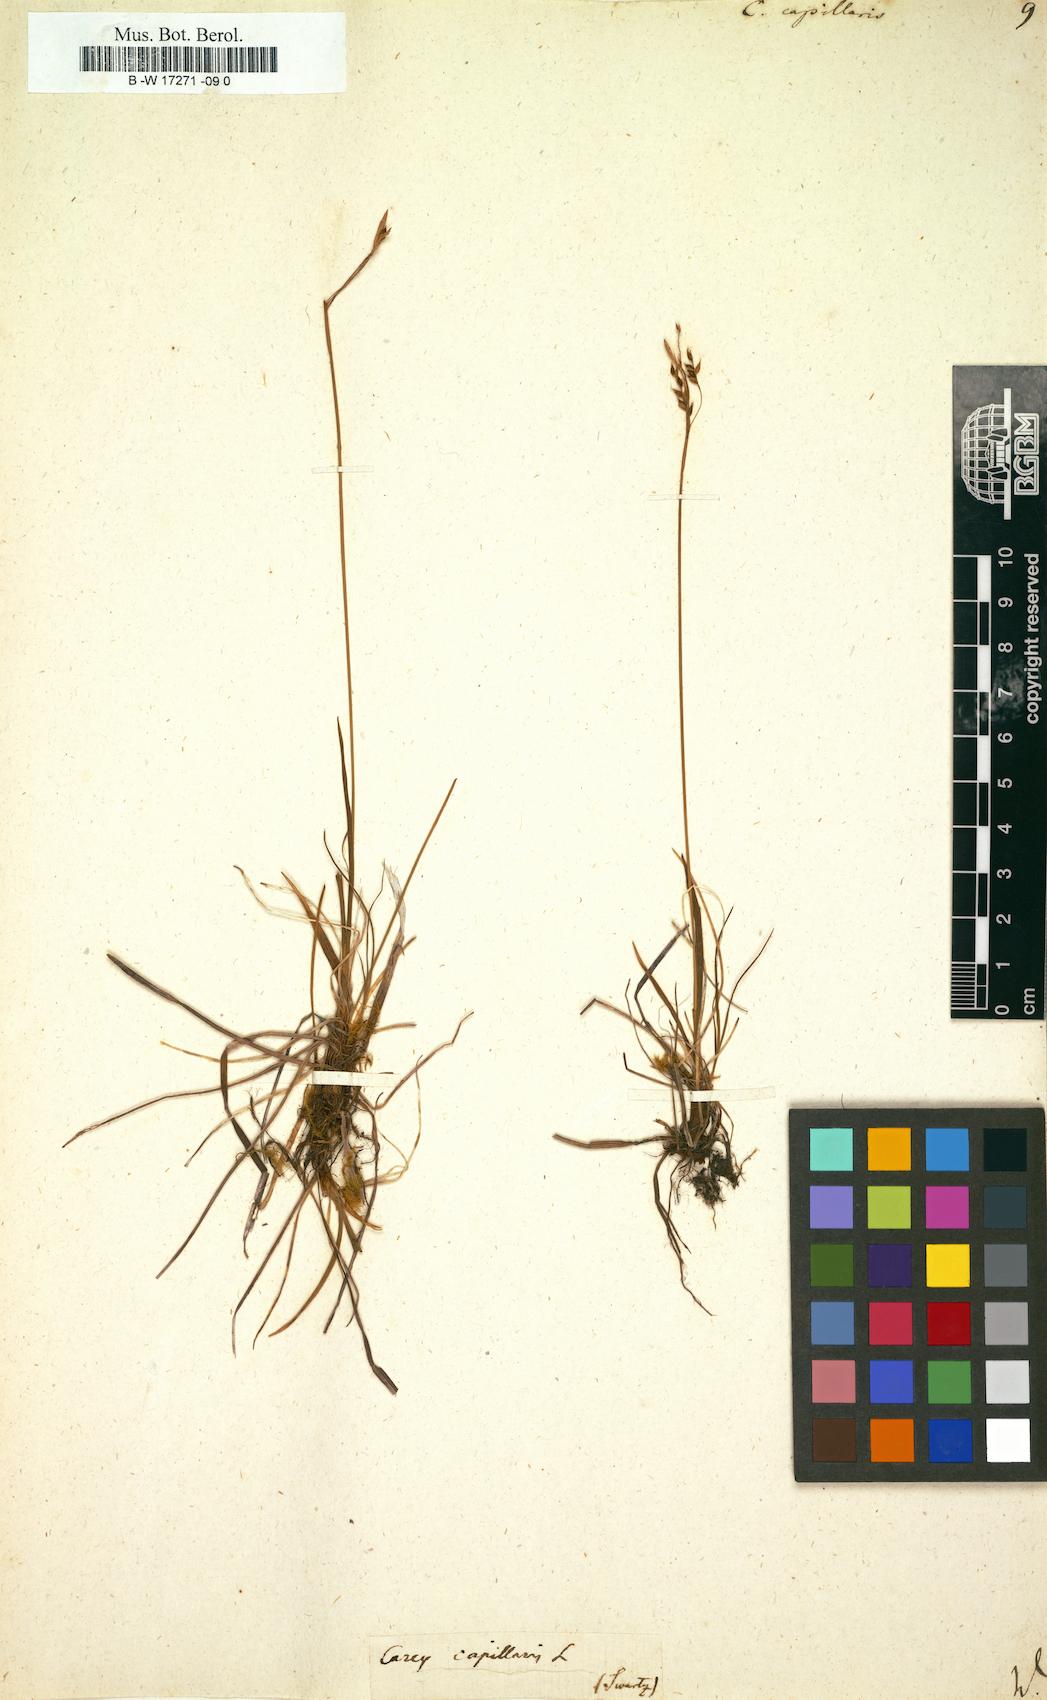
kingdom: Plantae
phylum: Tracheophyta
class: Liliopsida
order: Poales
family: Cyperaceae
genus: Carex
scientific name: Carex capillaris
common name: Hair sedge
